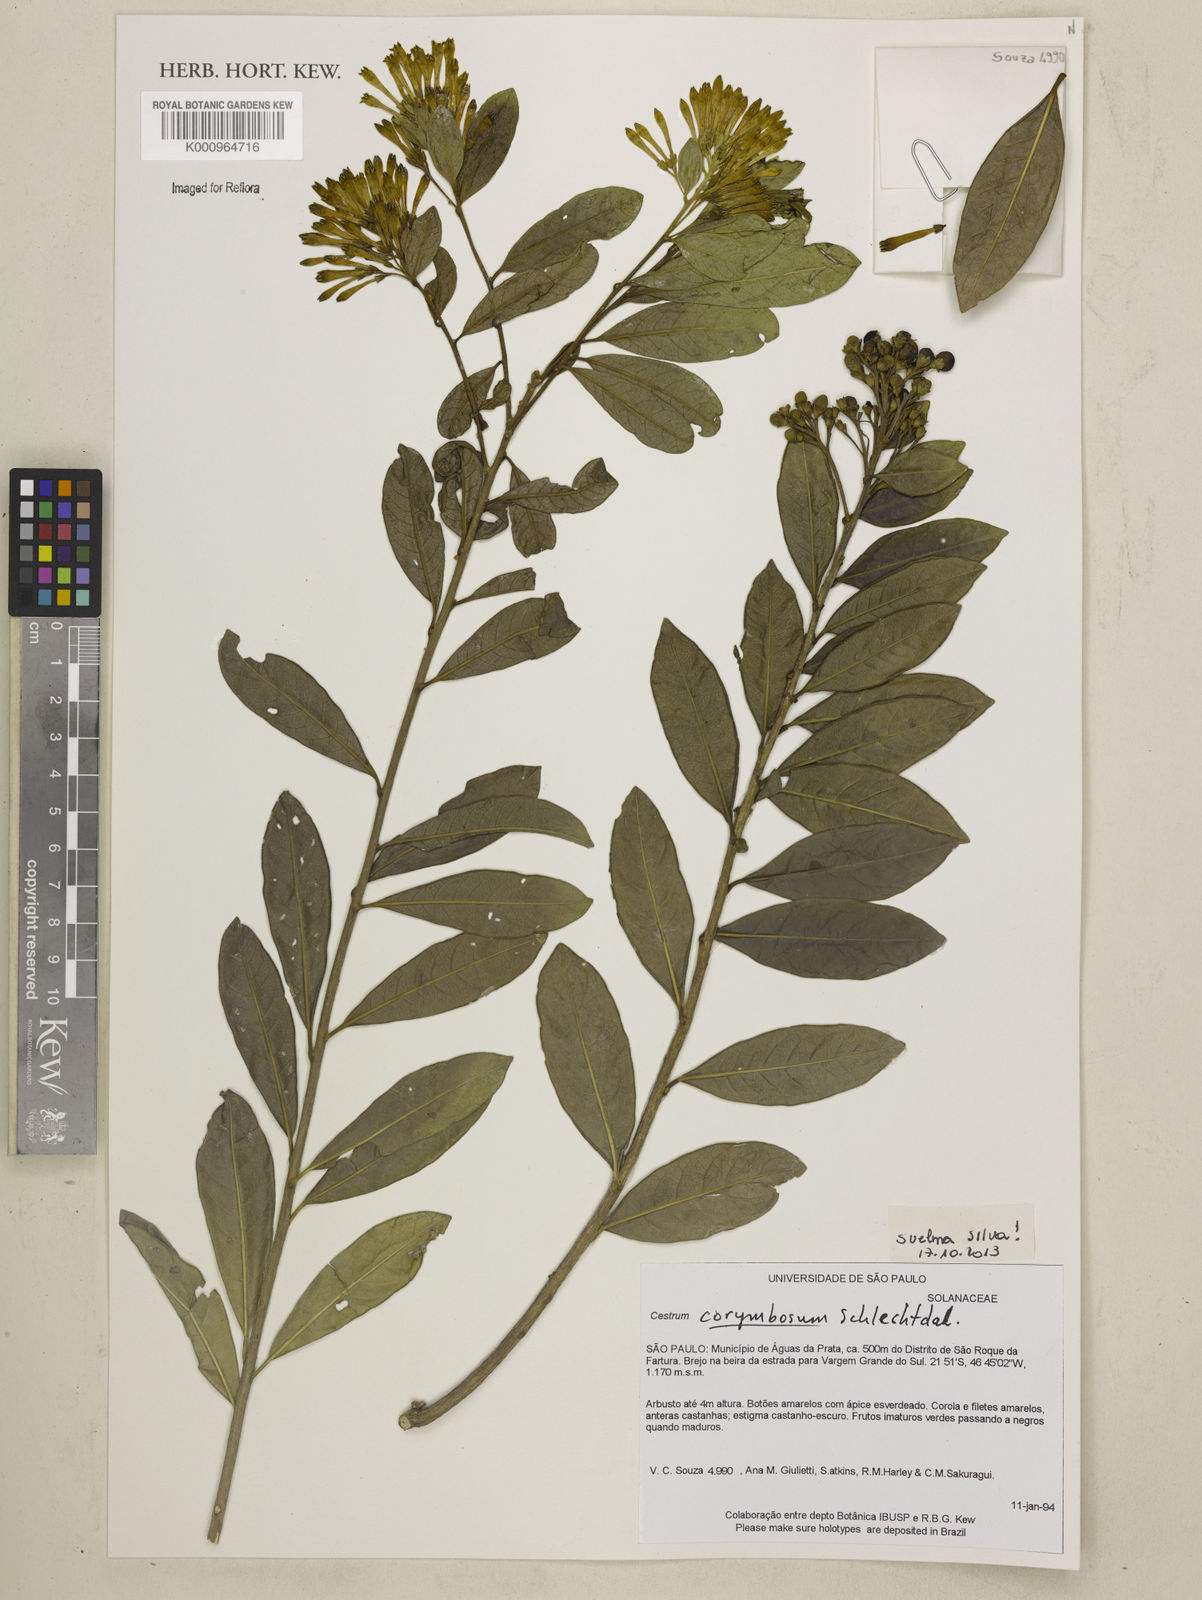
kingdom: Plantae
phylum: Tracheophyta
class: Magnoliopsida
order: Solanales
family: Solanaceae
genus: Cestrum
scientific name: Cestrum corymbosum
